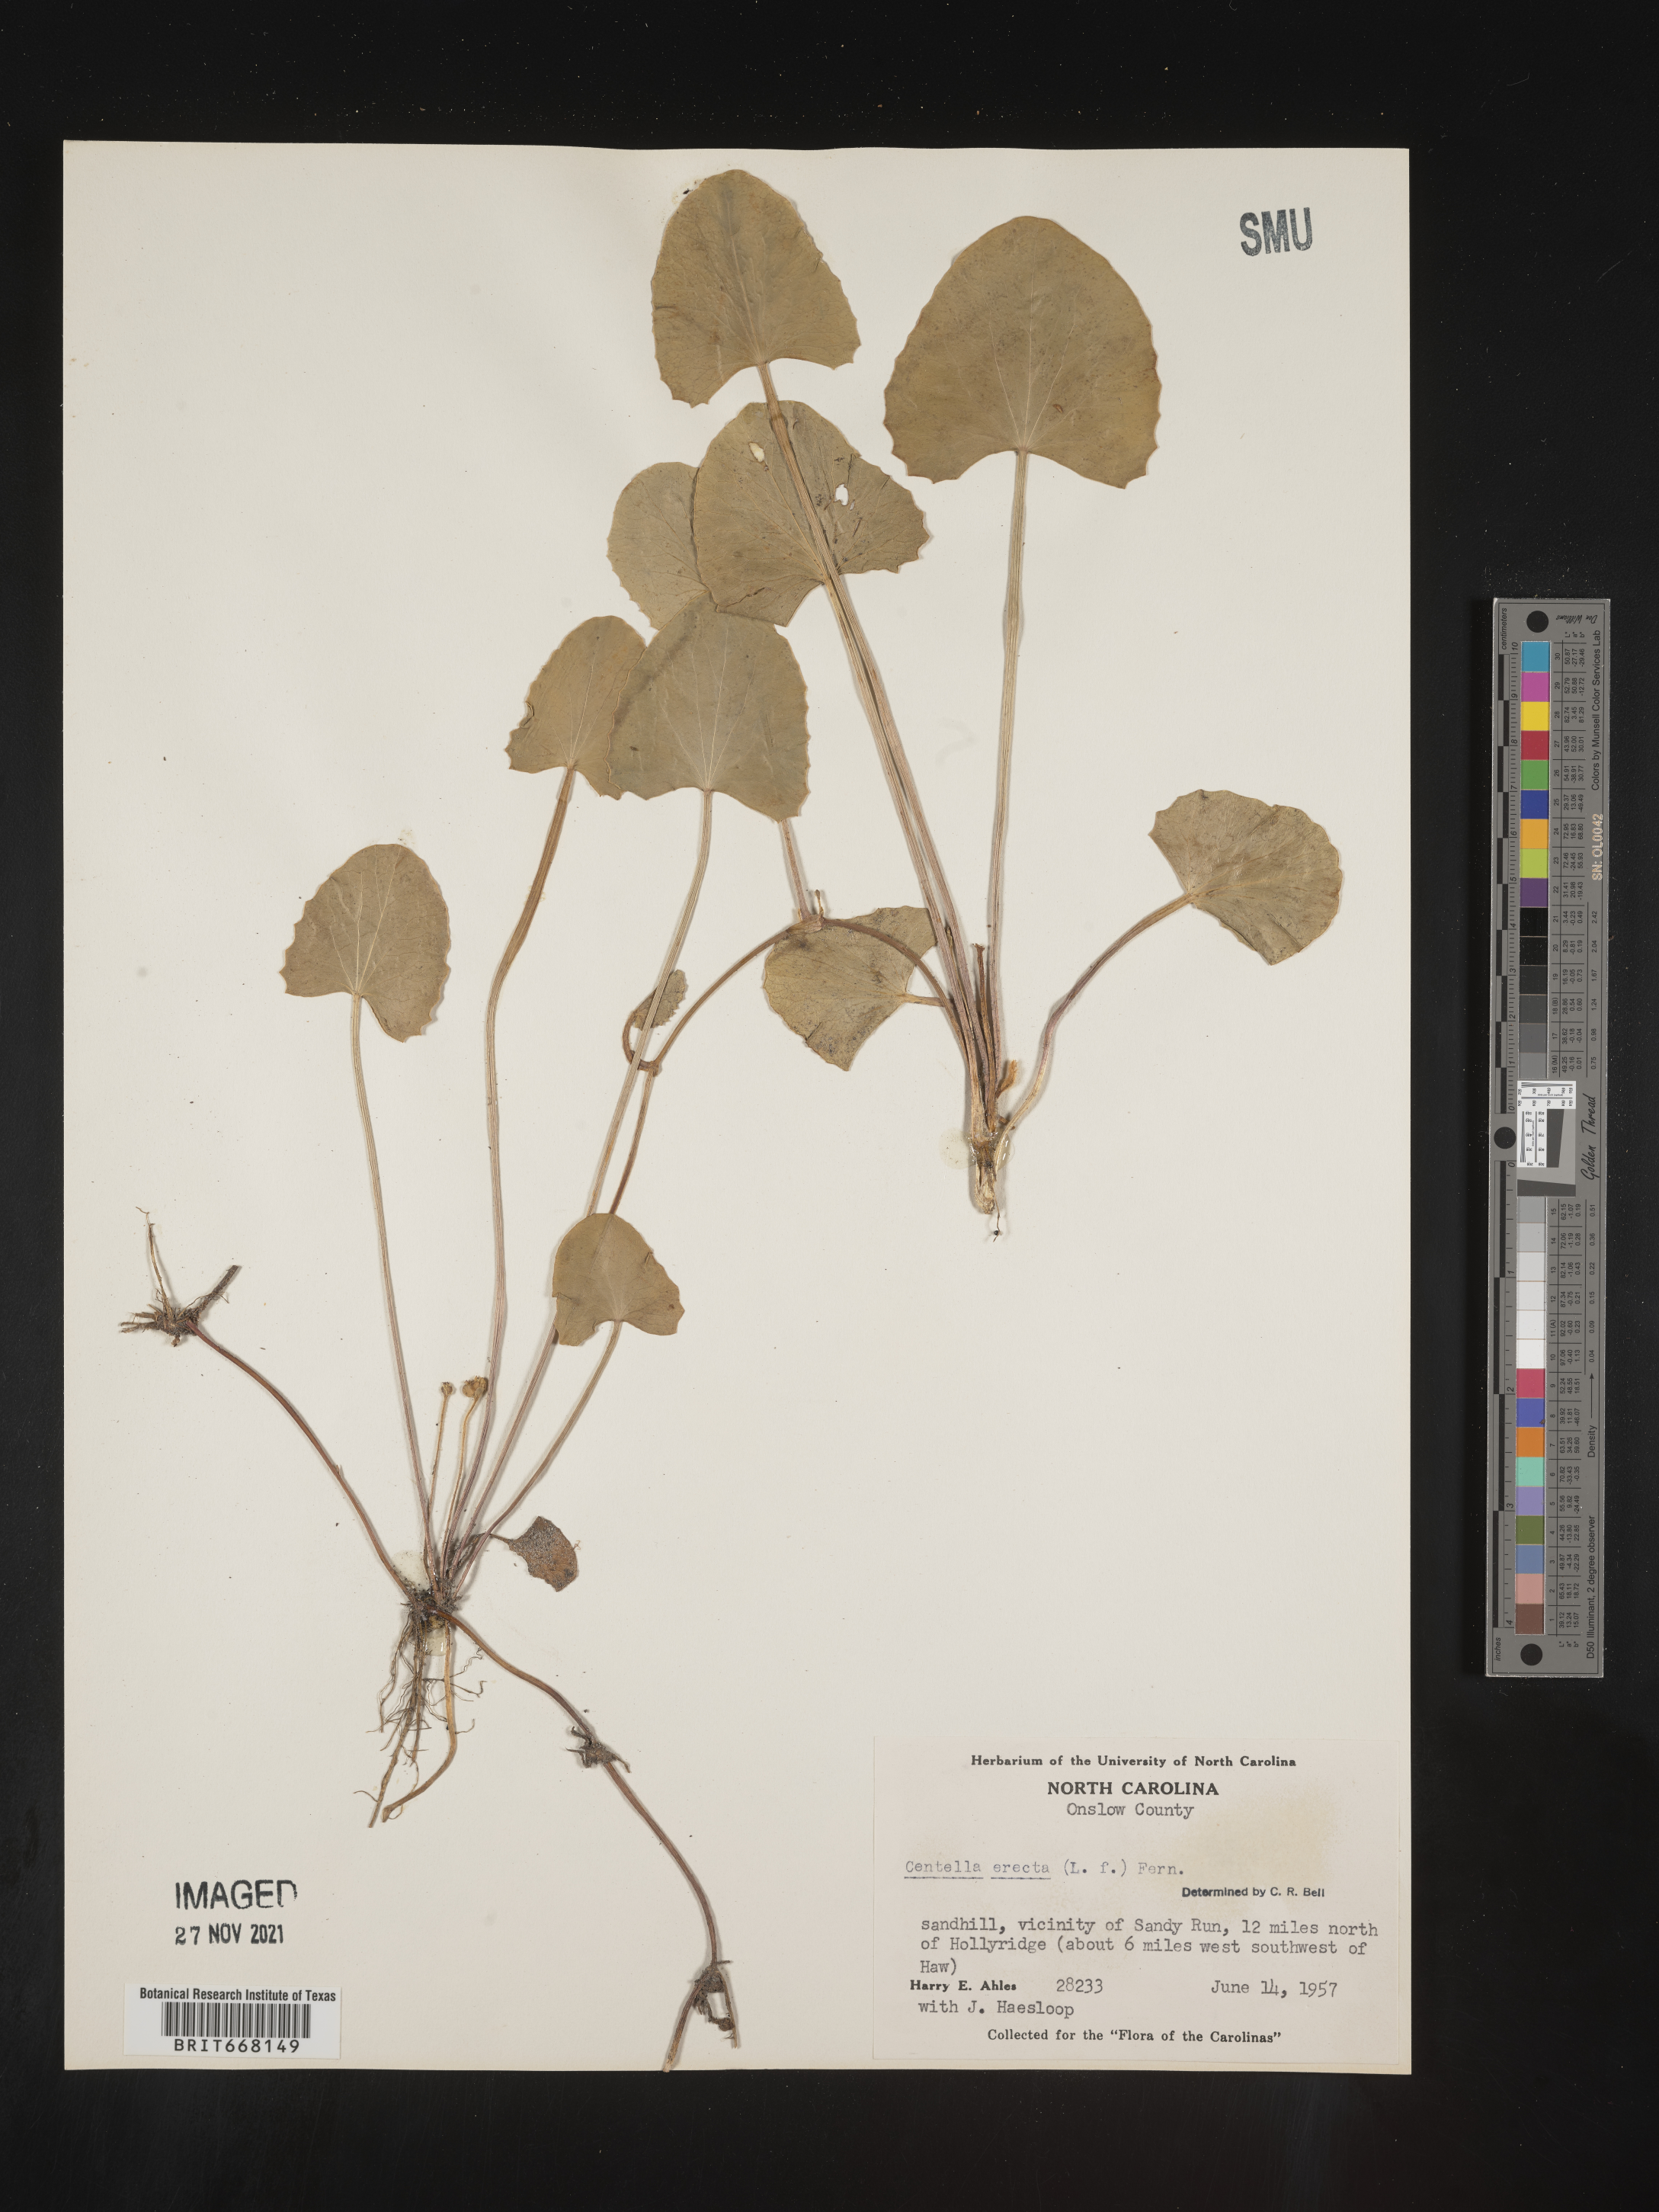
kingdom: Plantae
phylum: Tracheophyta
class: Magnoliopsida
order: Apiales
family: Apiaceae
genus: Centella
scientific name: Centella
